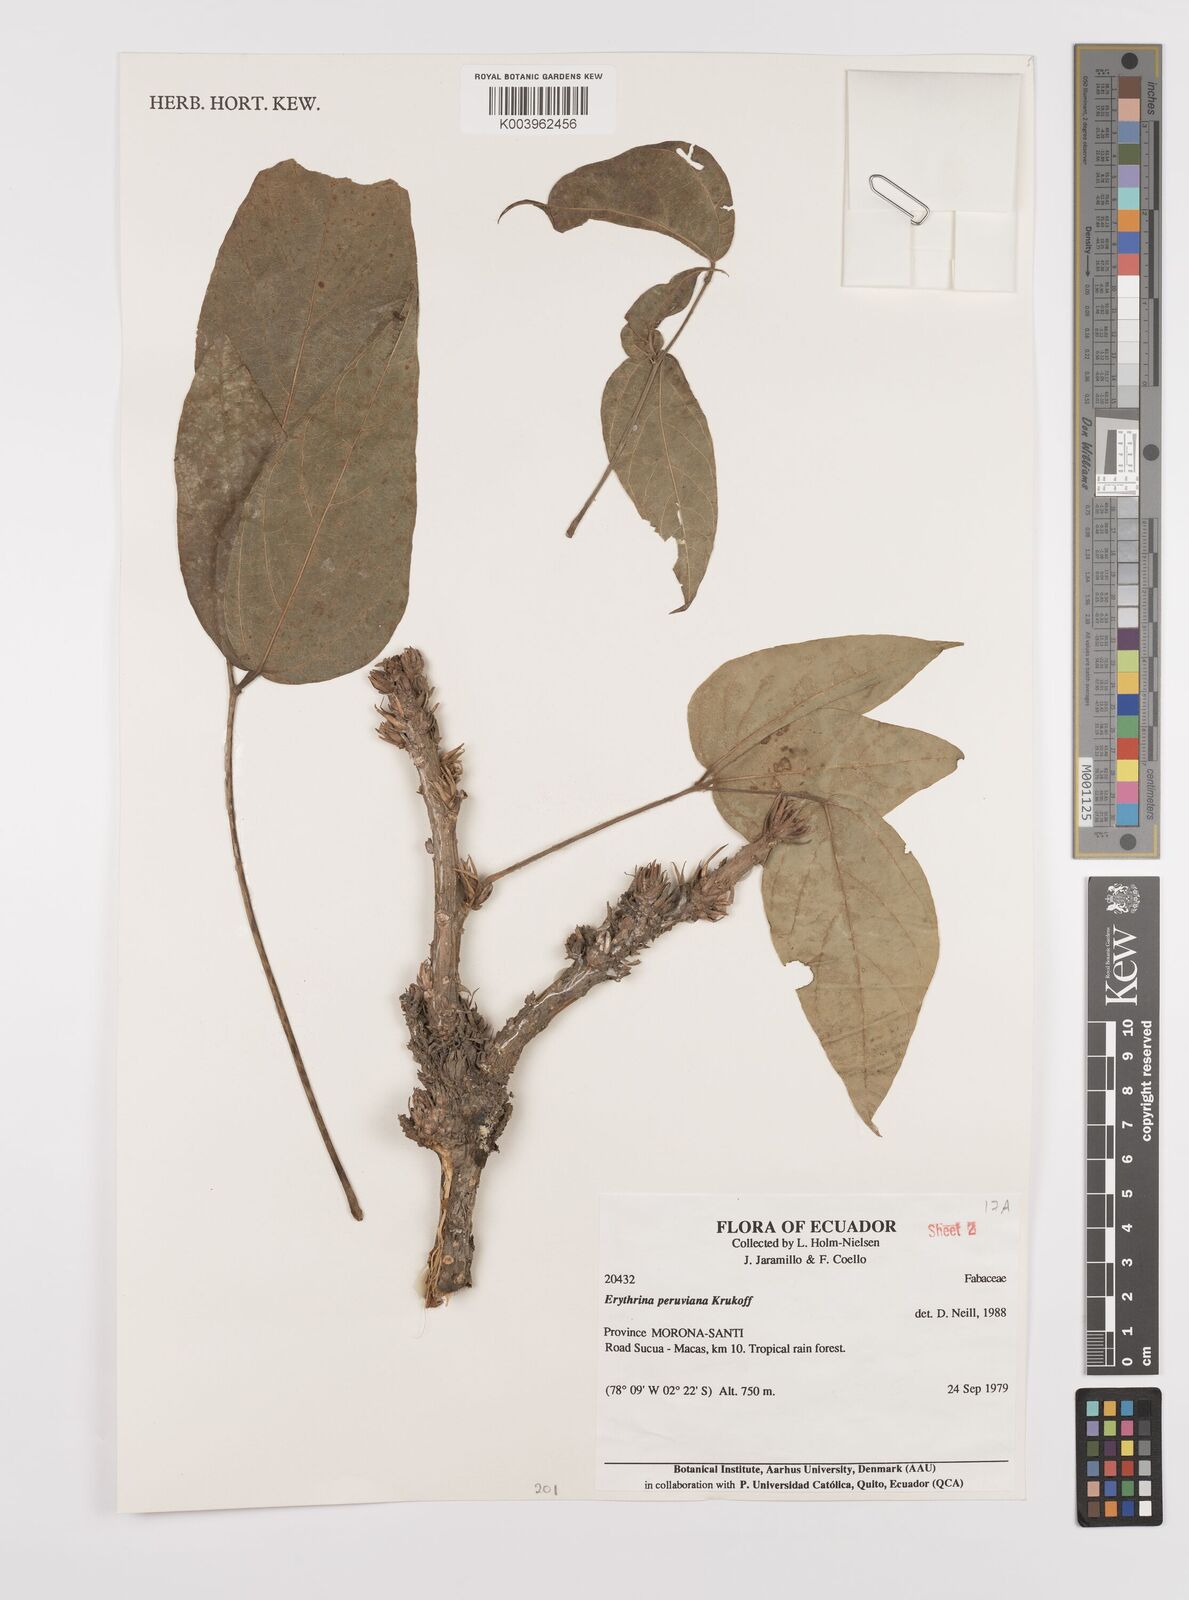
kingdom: Plantae
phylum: Tracheophyta
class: Magnoliopsida
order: Fabales
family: Fabaceae
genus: Erythrina
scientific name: Erythrina peruviana
